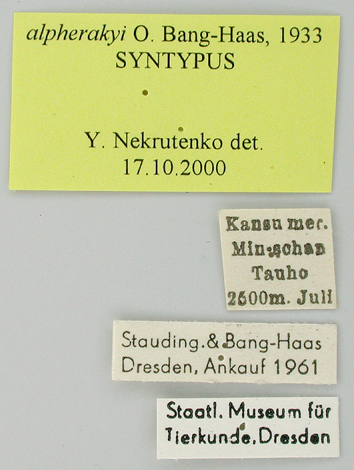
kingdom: Animalia
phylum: Arthropoda
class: Insecta
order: Lepidoptera
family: Papilionidae
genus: Papilio
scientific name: Papilio machaon
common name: Swallowtail
